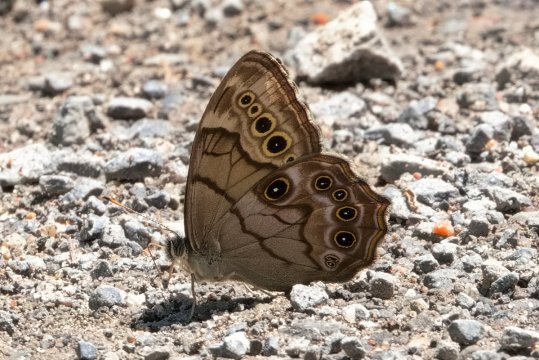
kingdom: Animalia
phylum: Arthropoda
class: Insecta
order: Lepidoptera
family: Nymphalidae
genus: Lethe
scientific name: Lethe anthedon
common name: Northern Pearly-Eye
